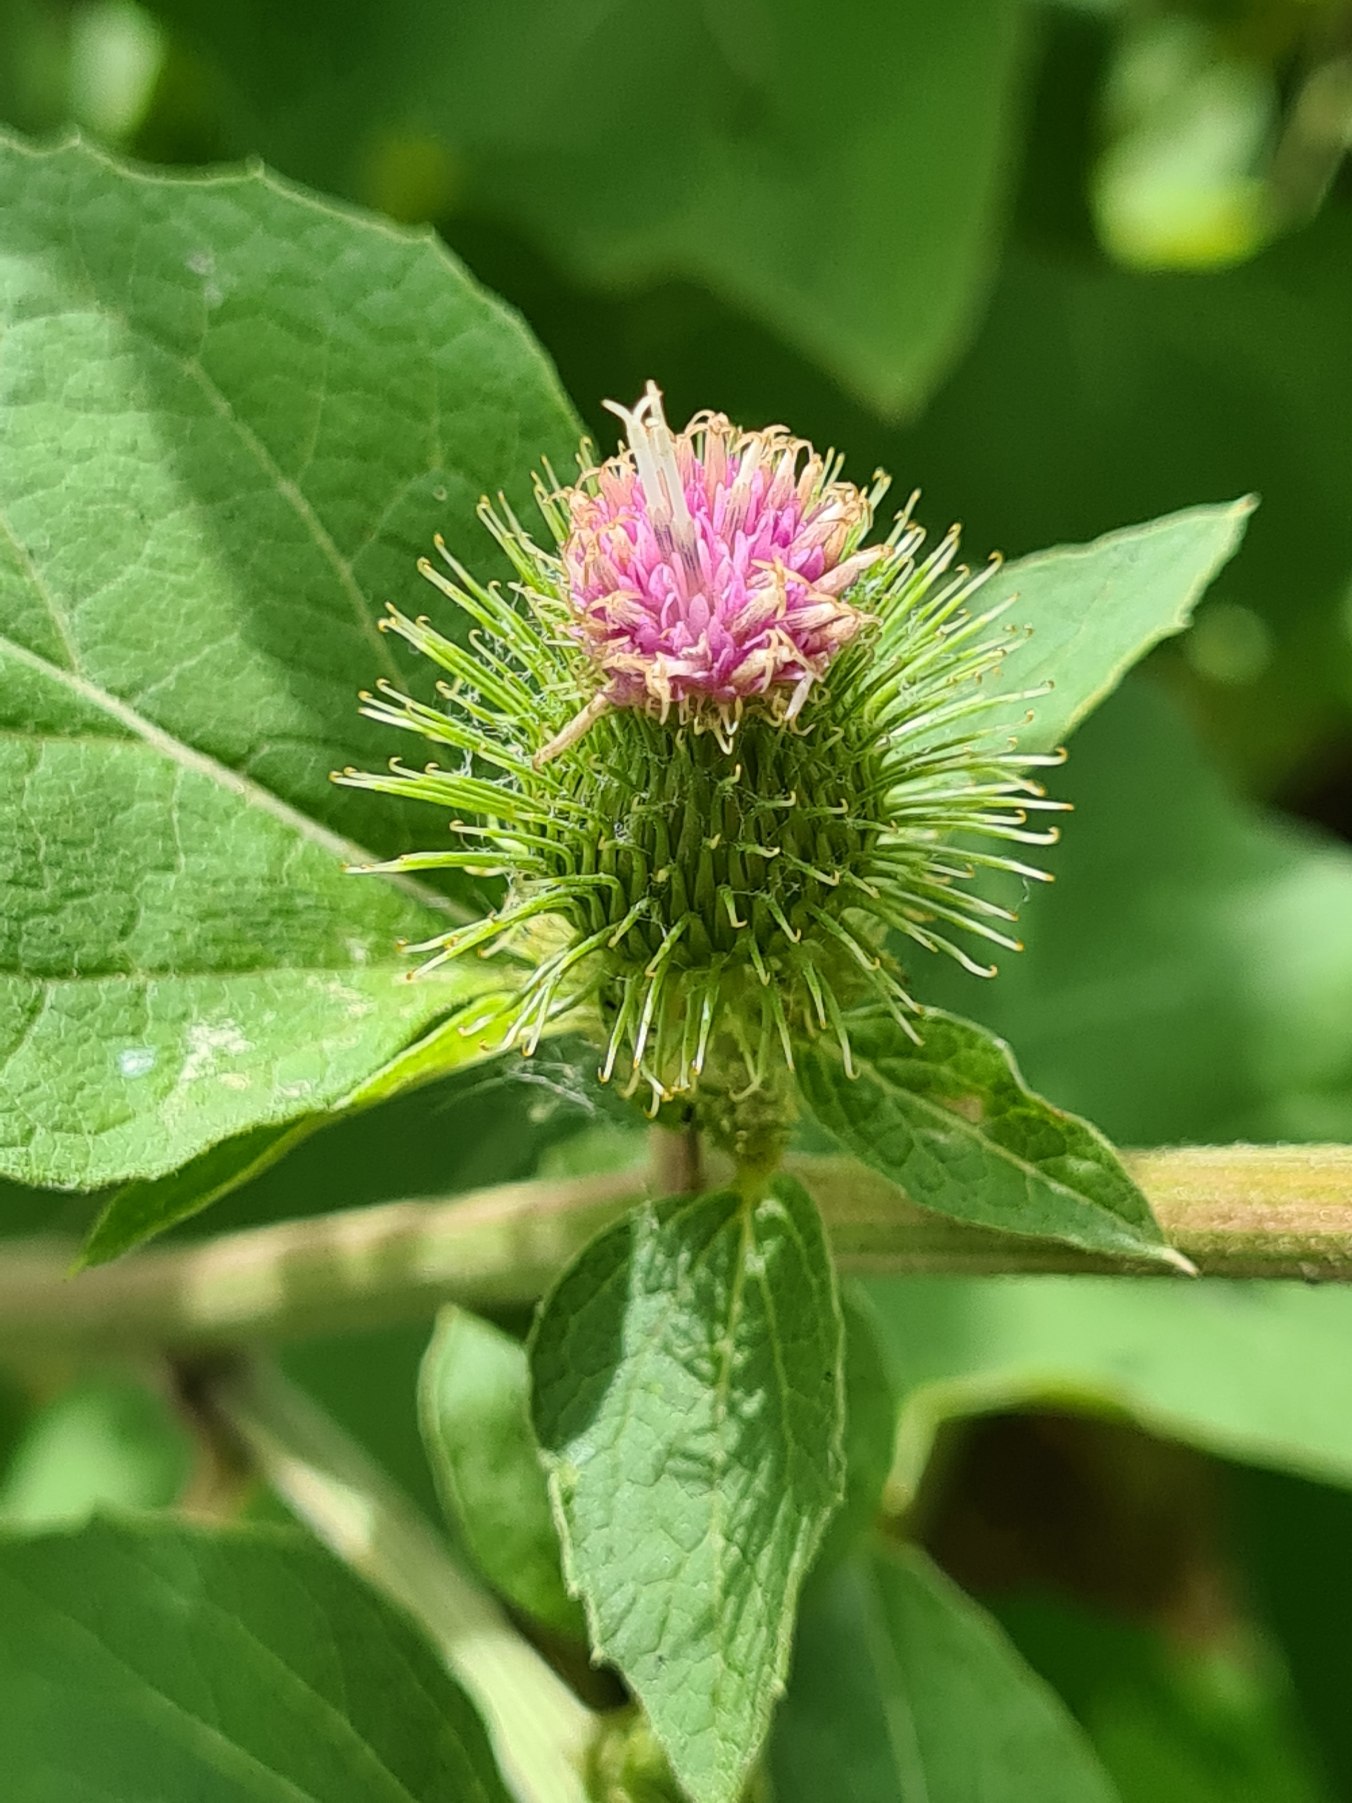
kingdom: Plantae
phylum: Tracheophyta
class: Magnoliopsida
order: Asterales
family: Asteraceae
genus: Arctium
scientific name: Arctium minus
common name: Liden burre
